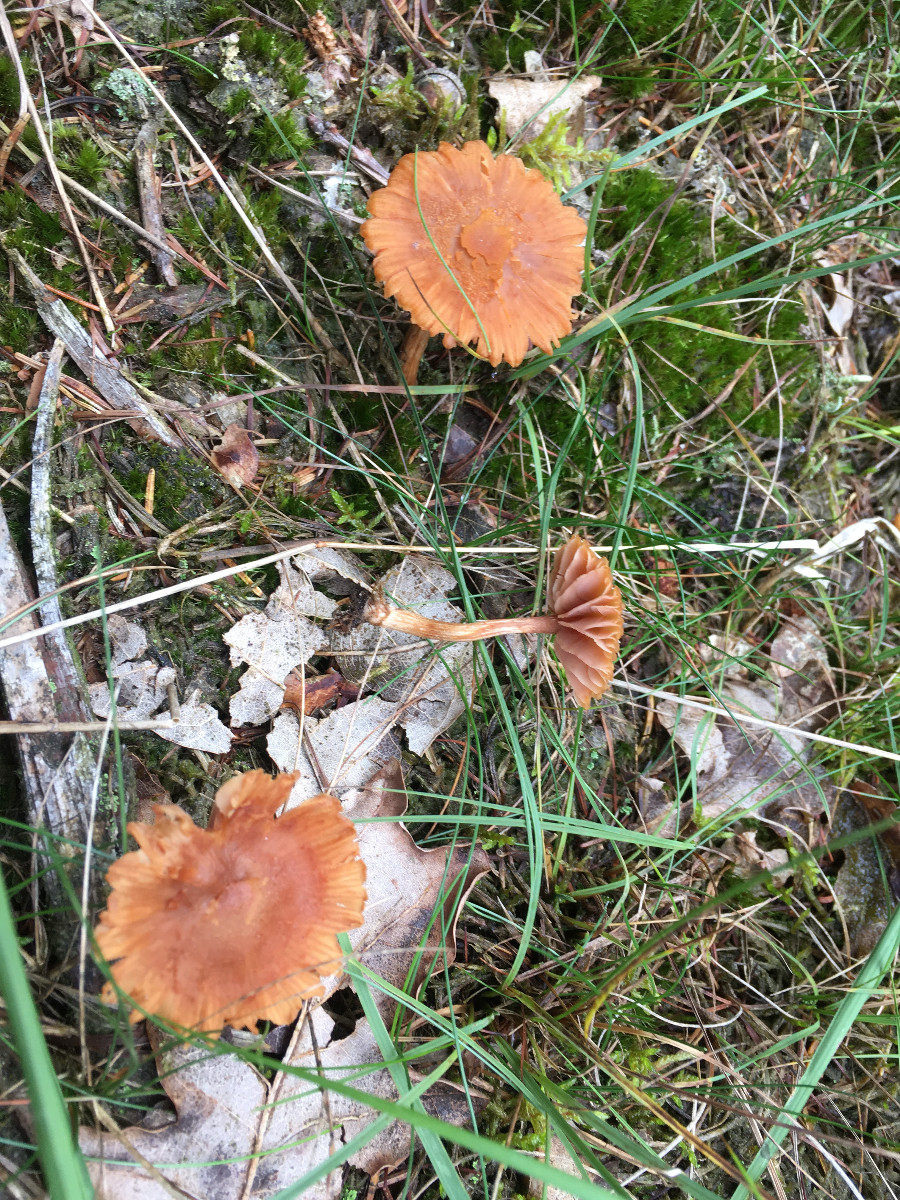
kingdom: Fungi
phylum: Basidiomycota
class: Agaricomycetes
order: Agaricales
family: Hydnangiaceae
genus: Laccaria
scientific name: Laccaria laccata
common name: rød ametysthat
